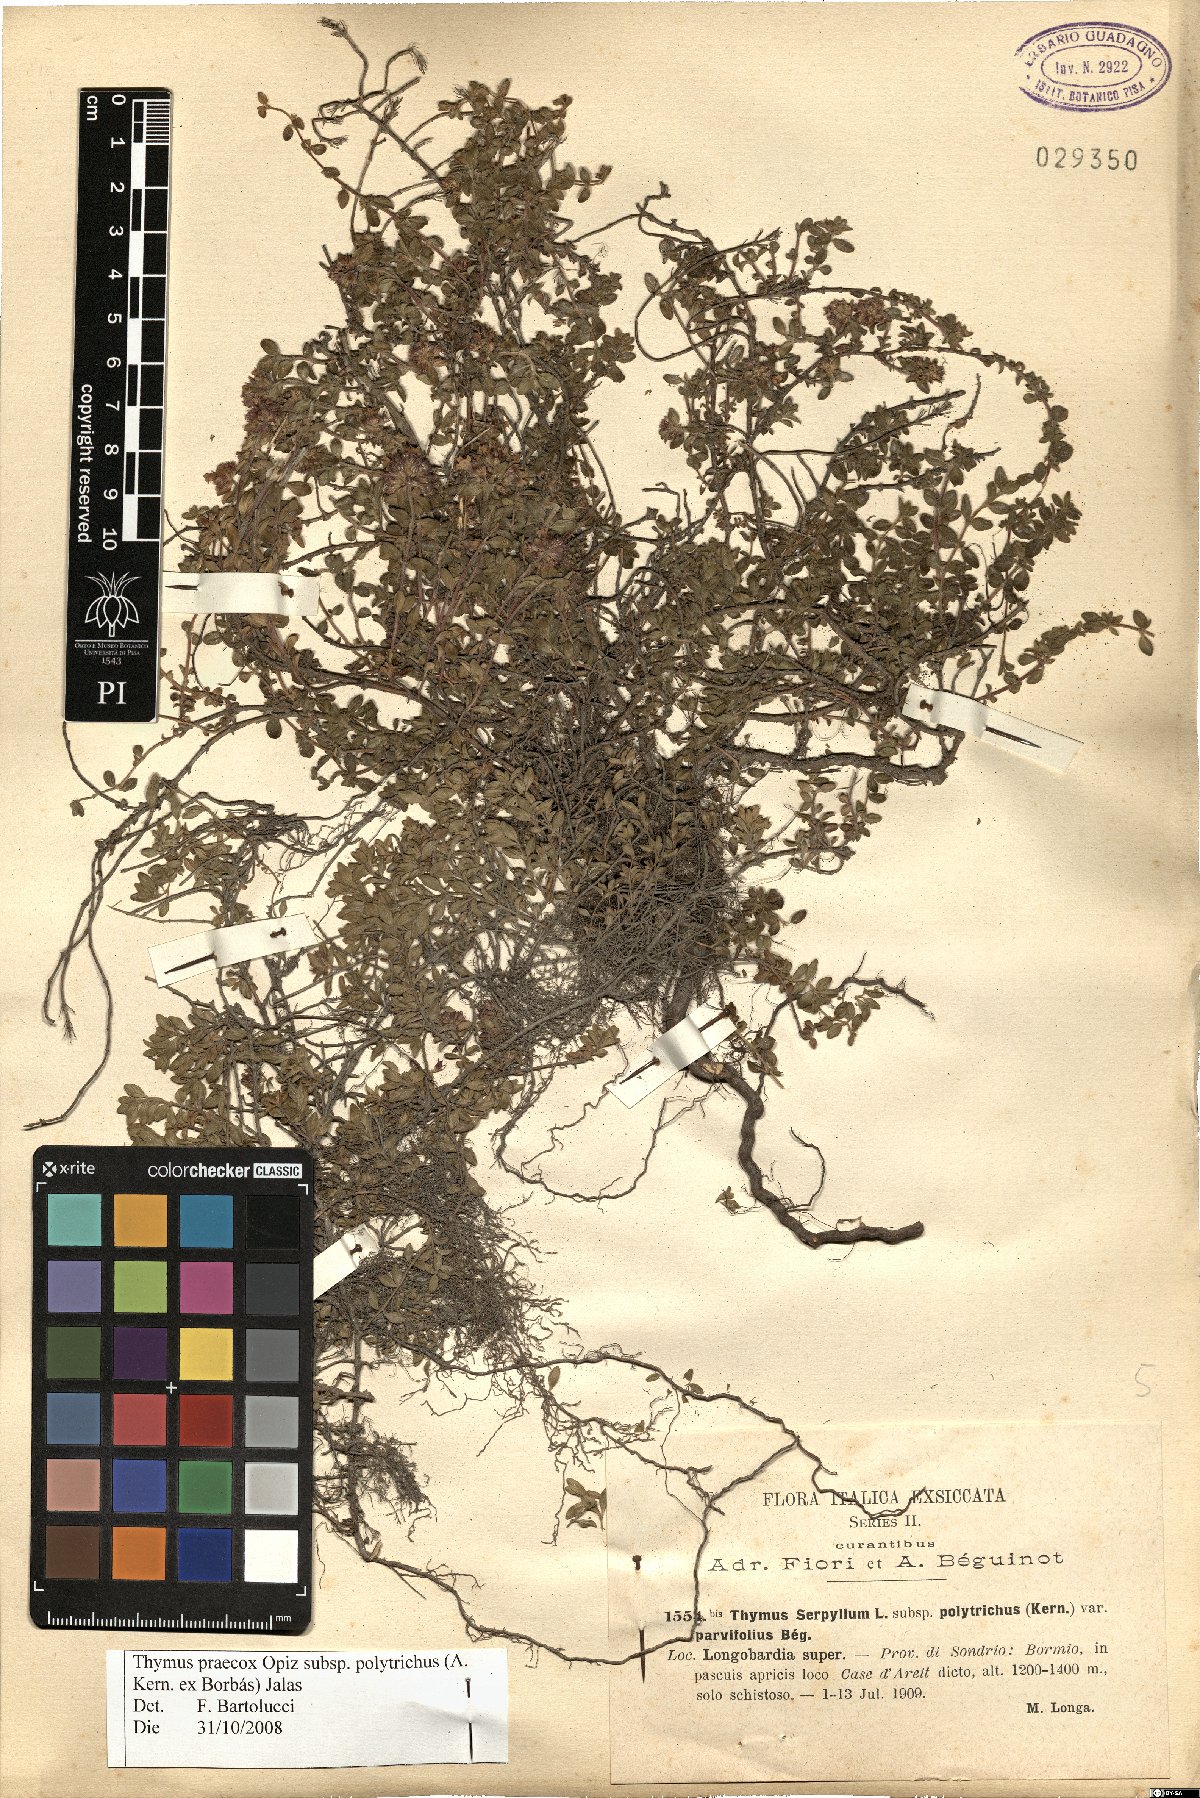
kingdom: Plantae
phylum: Tracheophyta
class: Magnoliopsida
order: Lamiales
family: Lamiaceae
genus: Thymus
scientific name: Thymus praecox
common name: Wild thyme
